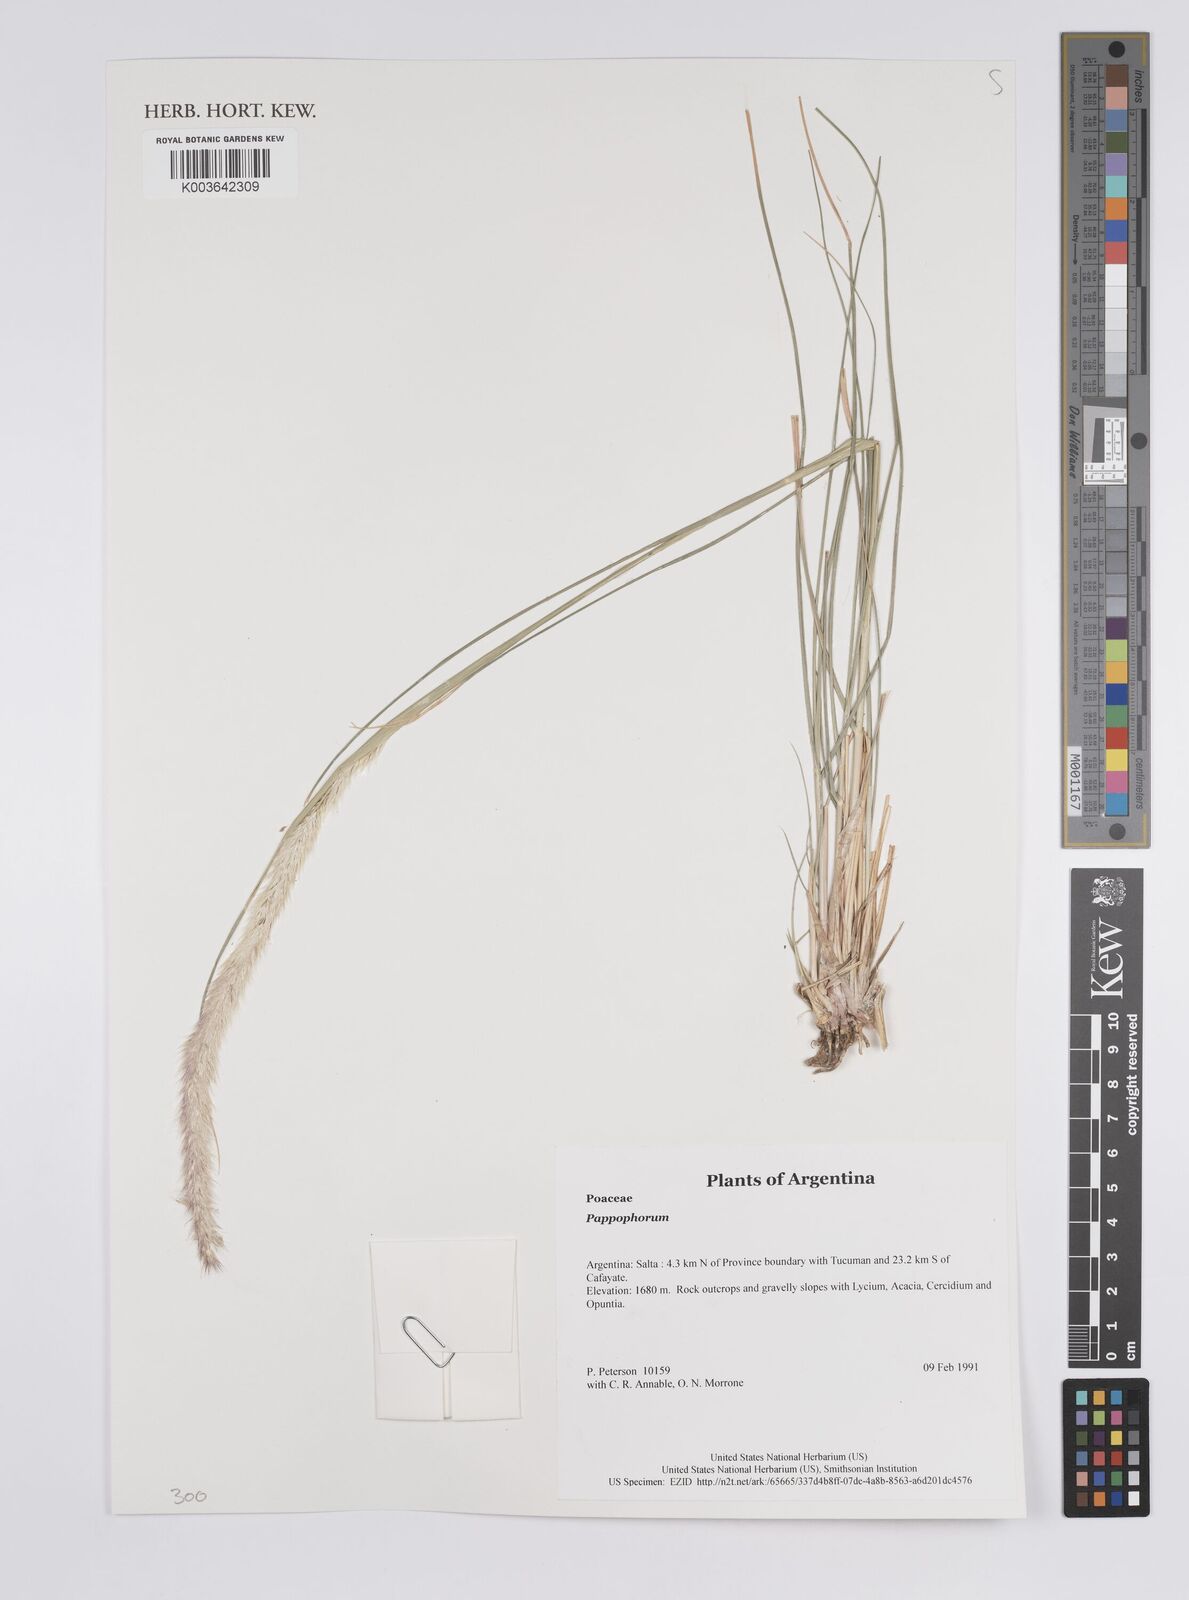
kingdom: Plantae
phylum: Tracheophyta
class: Liliopsida
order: Poales
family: Poaceae
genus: Pappophorum
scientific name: Pappophorum
